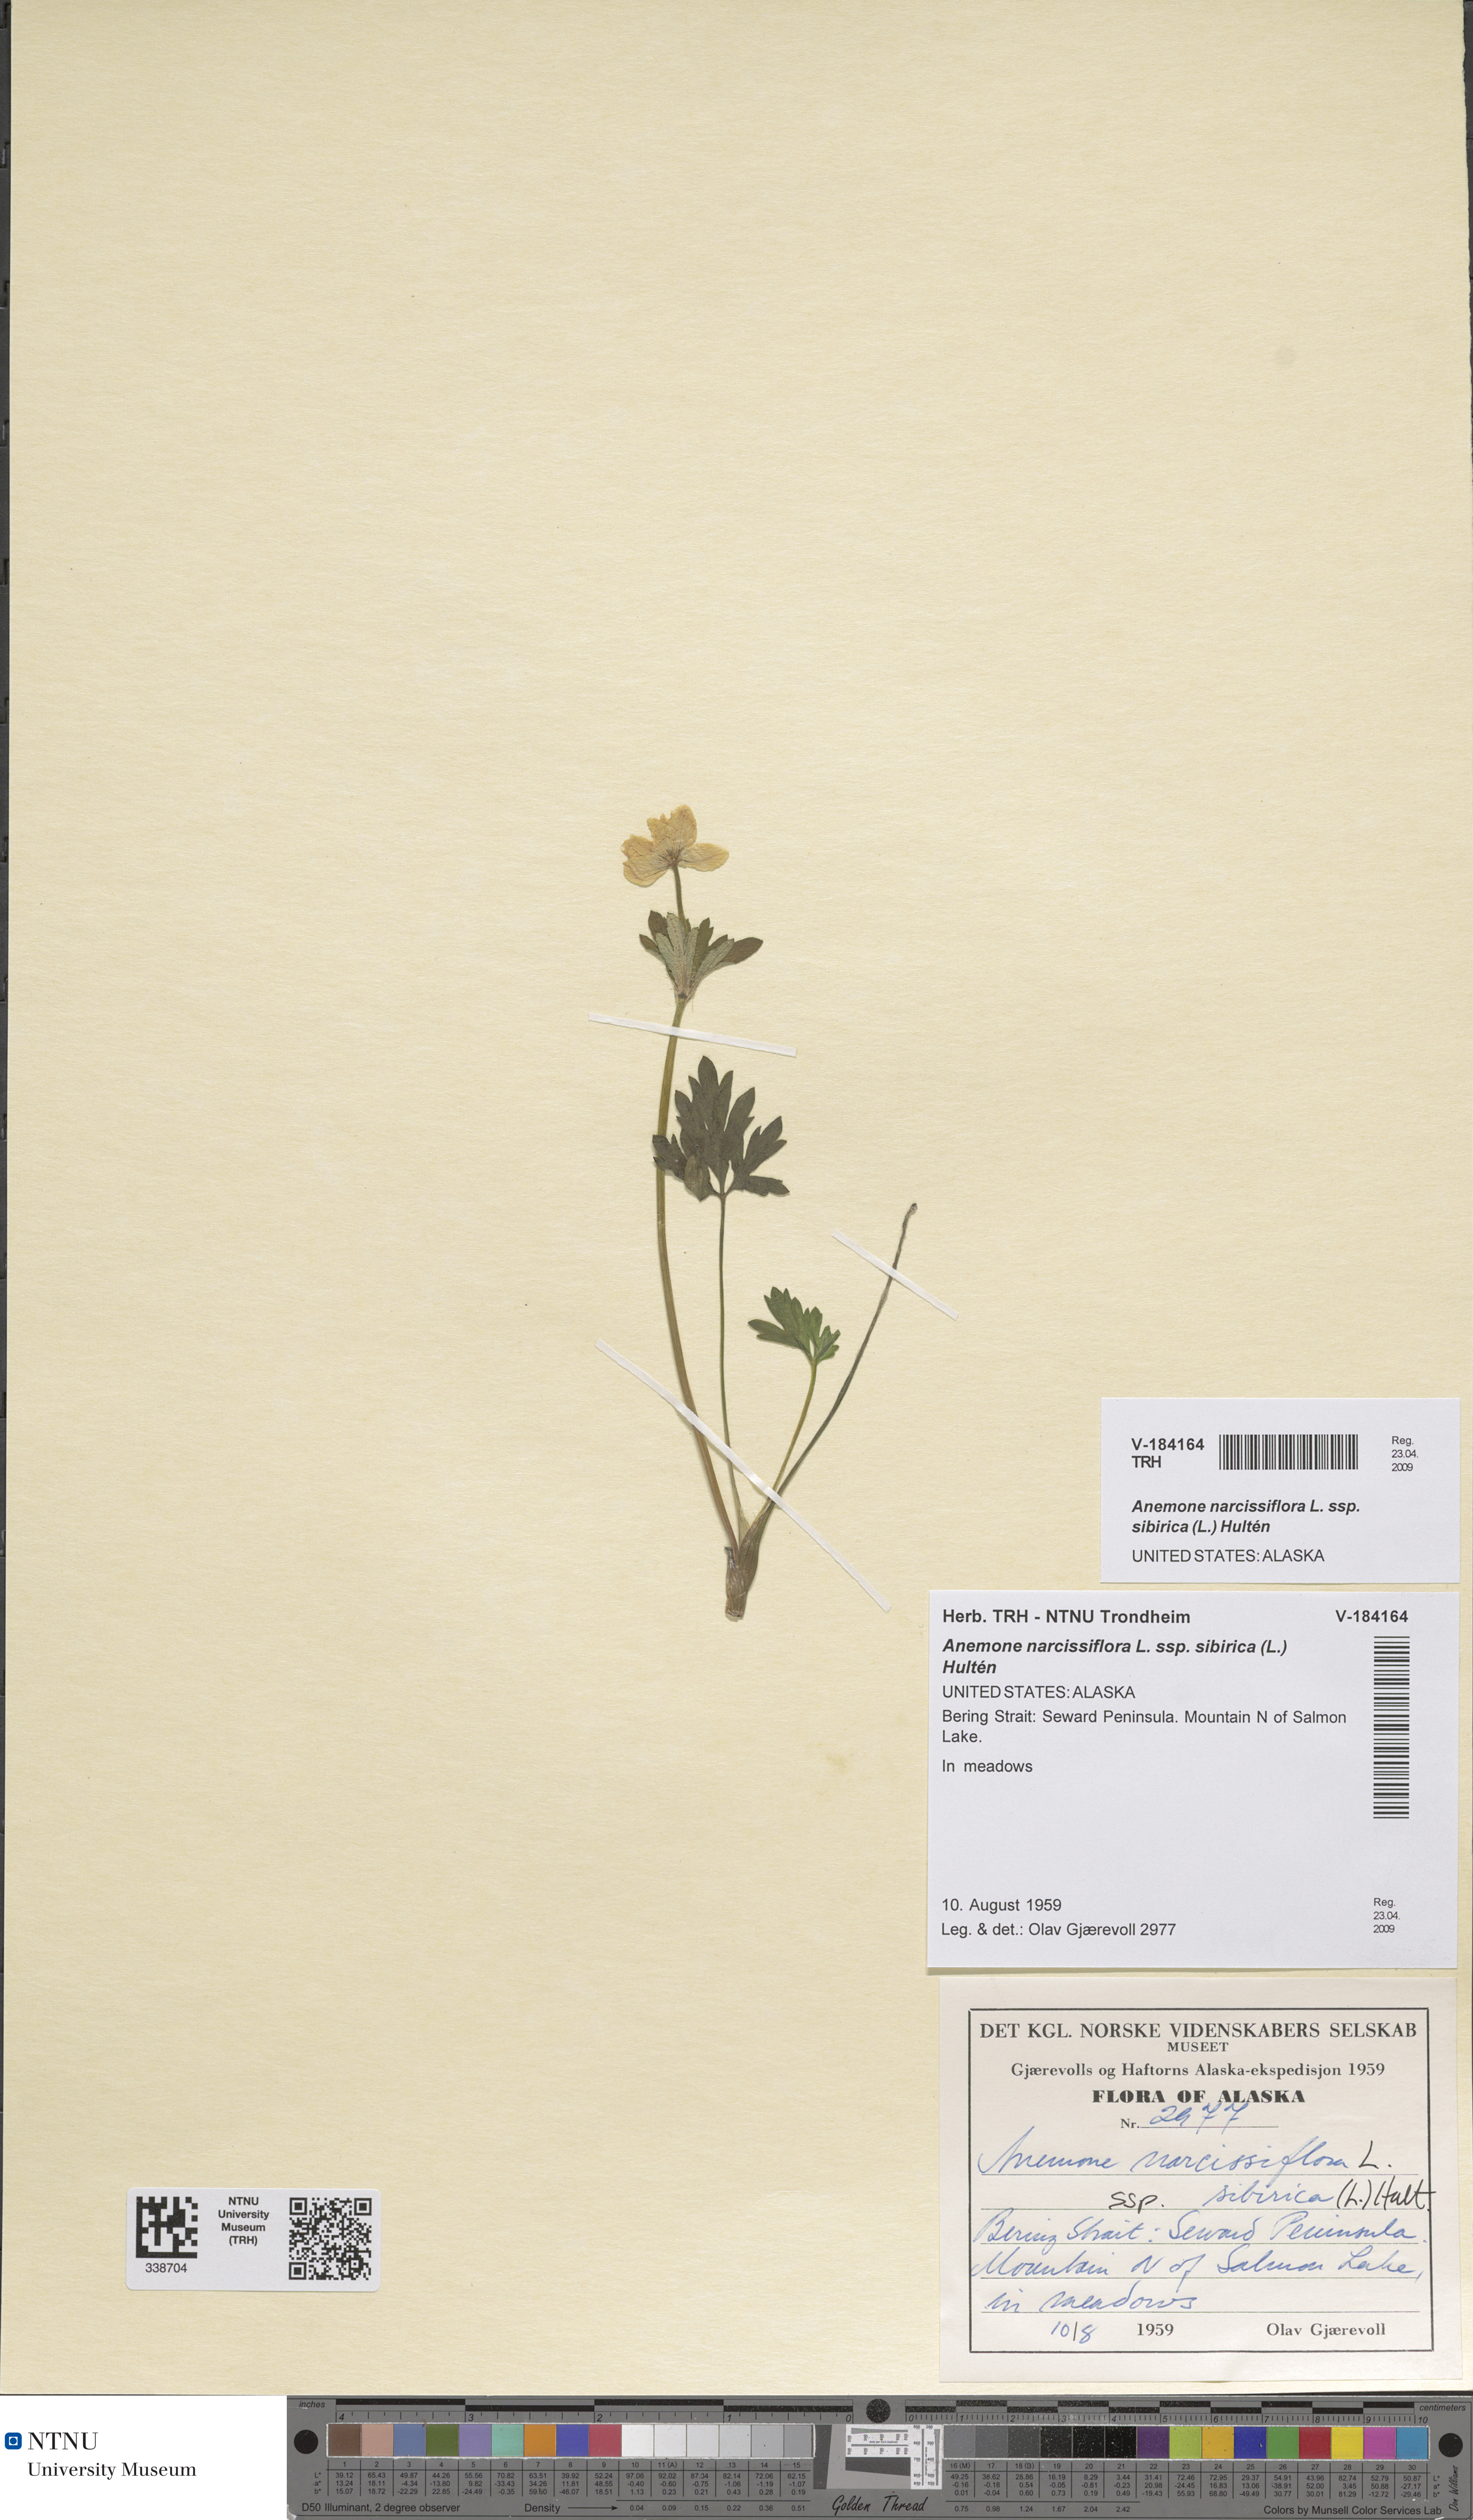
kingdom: Plantae
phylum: Tracheophyta
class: Magnoliopsida
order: Ranunculales
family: Ranunculaceae
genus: Anemonastrum
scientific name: Anemonastrum narcissiflorum
